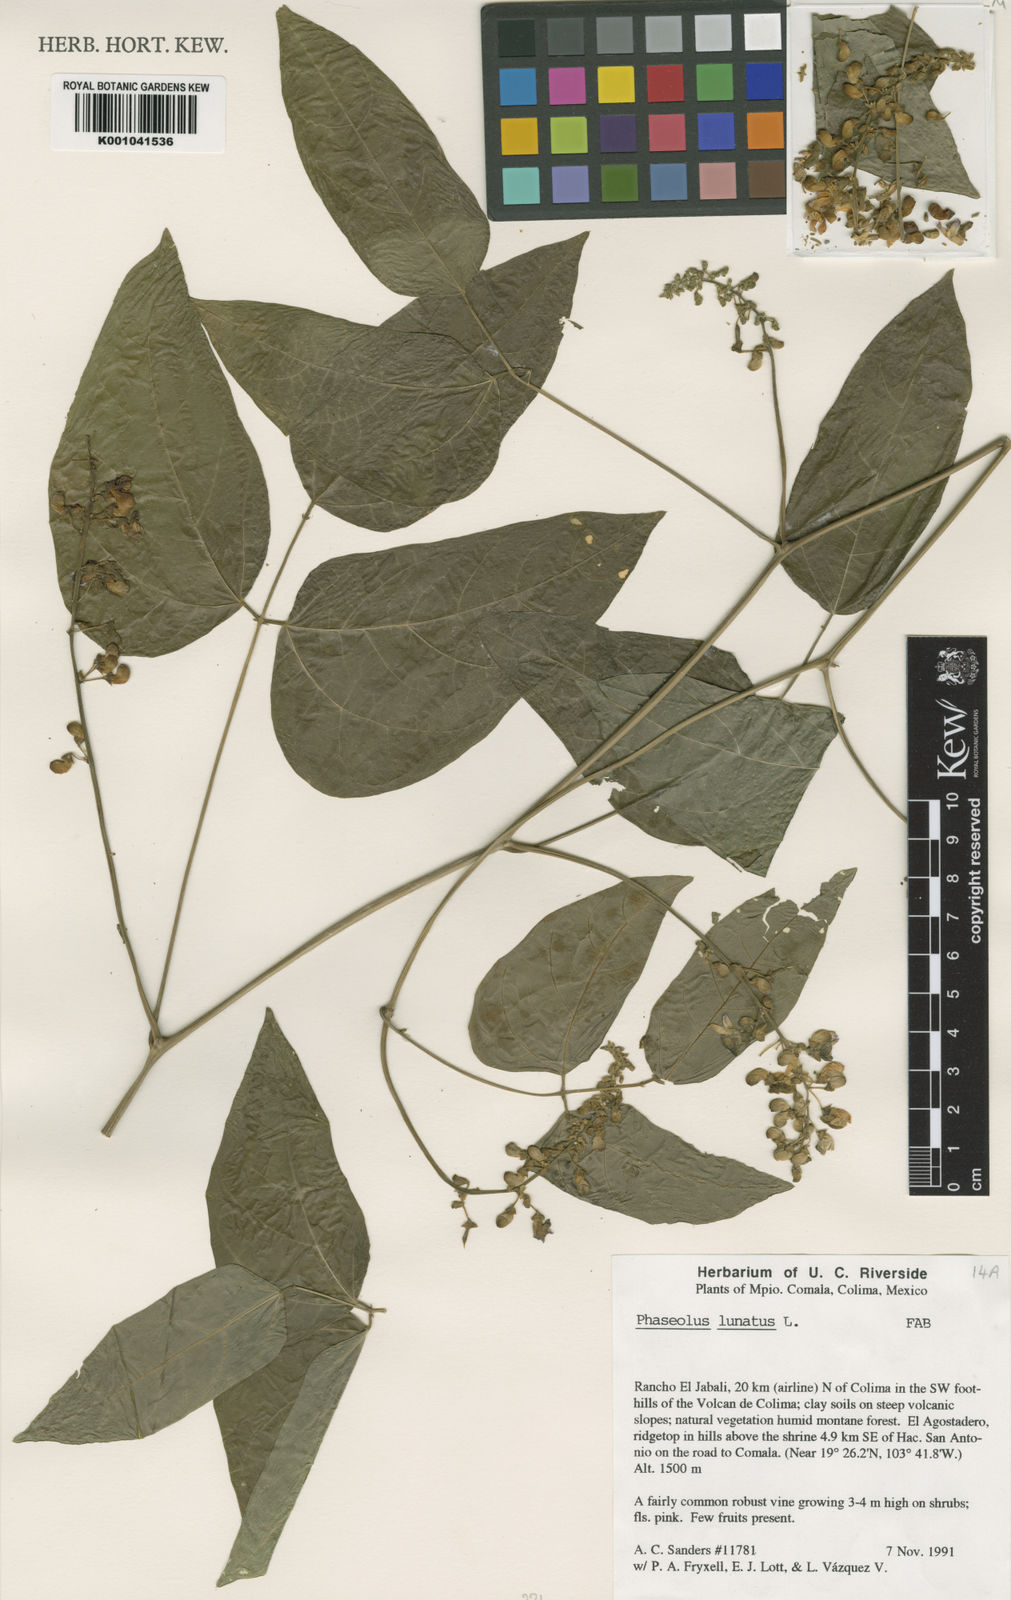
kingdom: Plantae
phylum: Tracheophyta
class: Magnoliopsida
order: Fabales
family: Fabaceae
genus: Phaseolus
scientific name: Phaseolus lunatus
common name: Sieva bean
